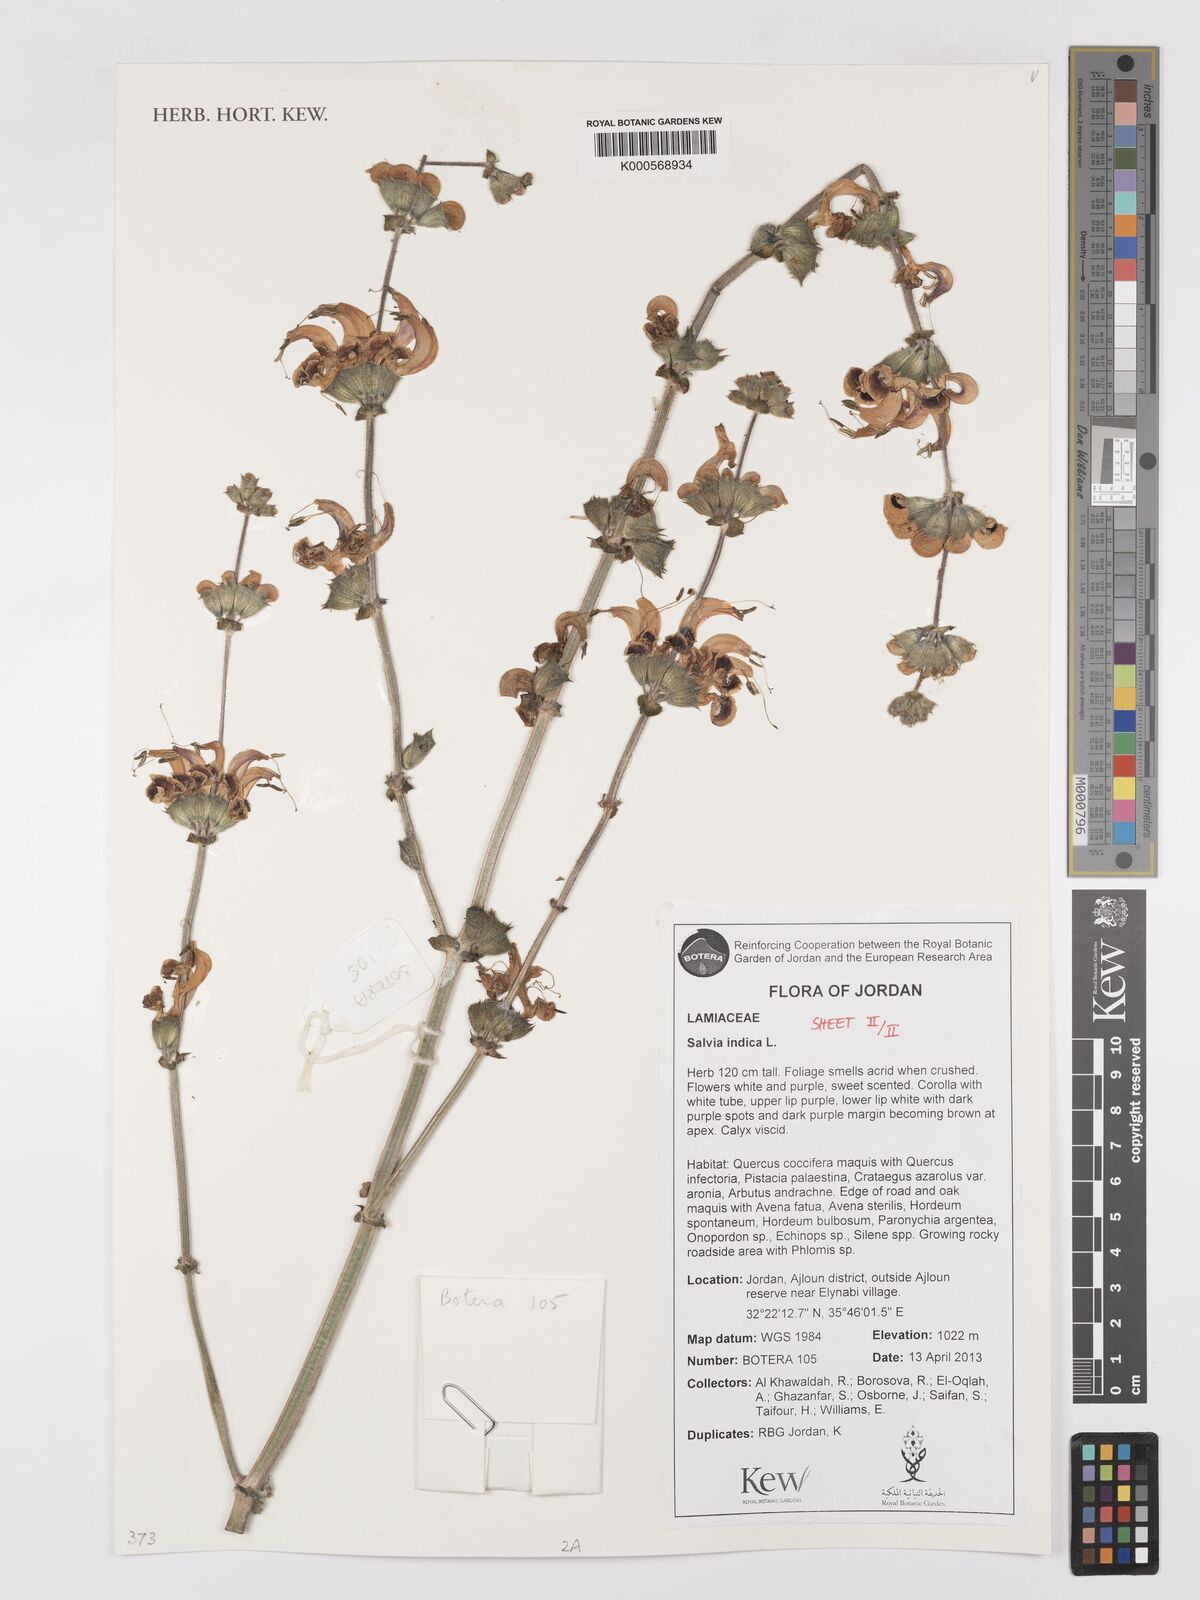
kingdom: Plantae
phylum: Tracheophyta
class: Magnoliopsida
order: Lamiales
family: Lamiaceae
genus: Salvia
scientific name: Salvia indica
